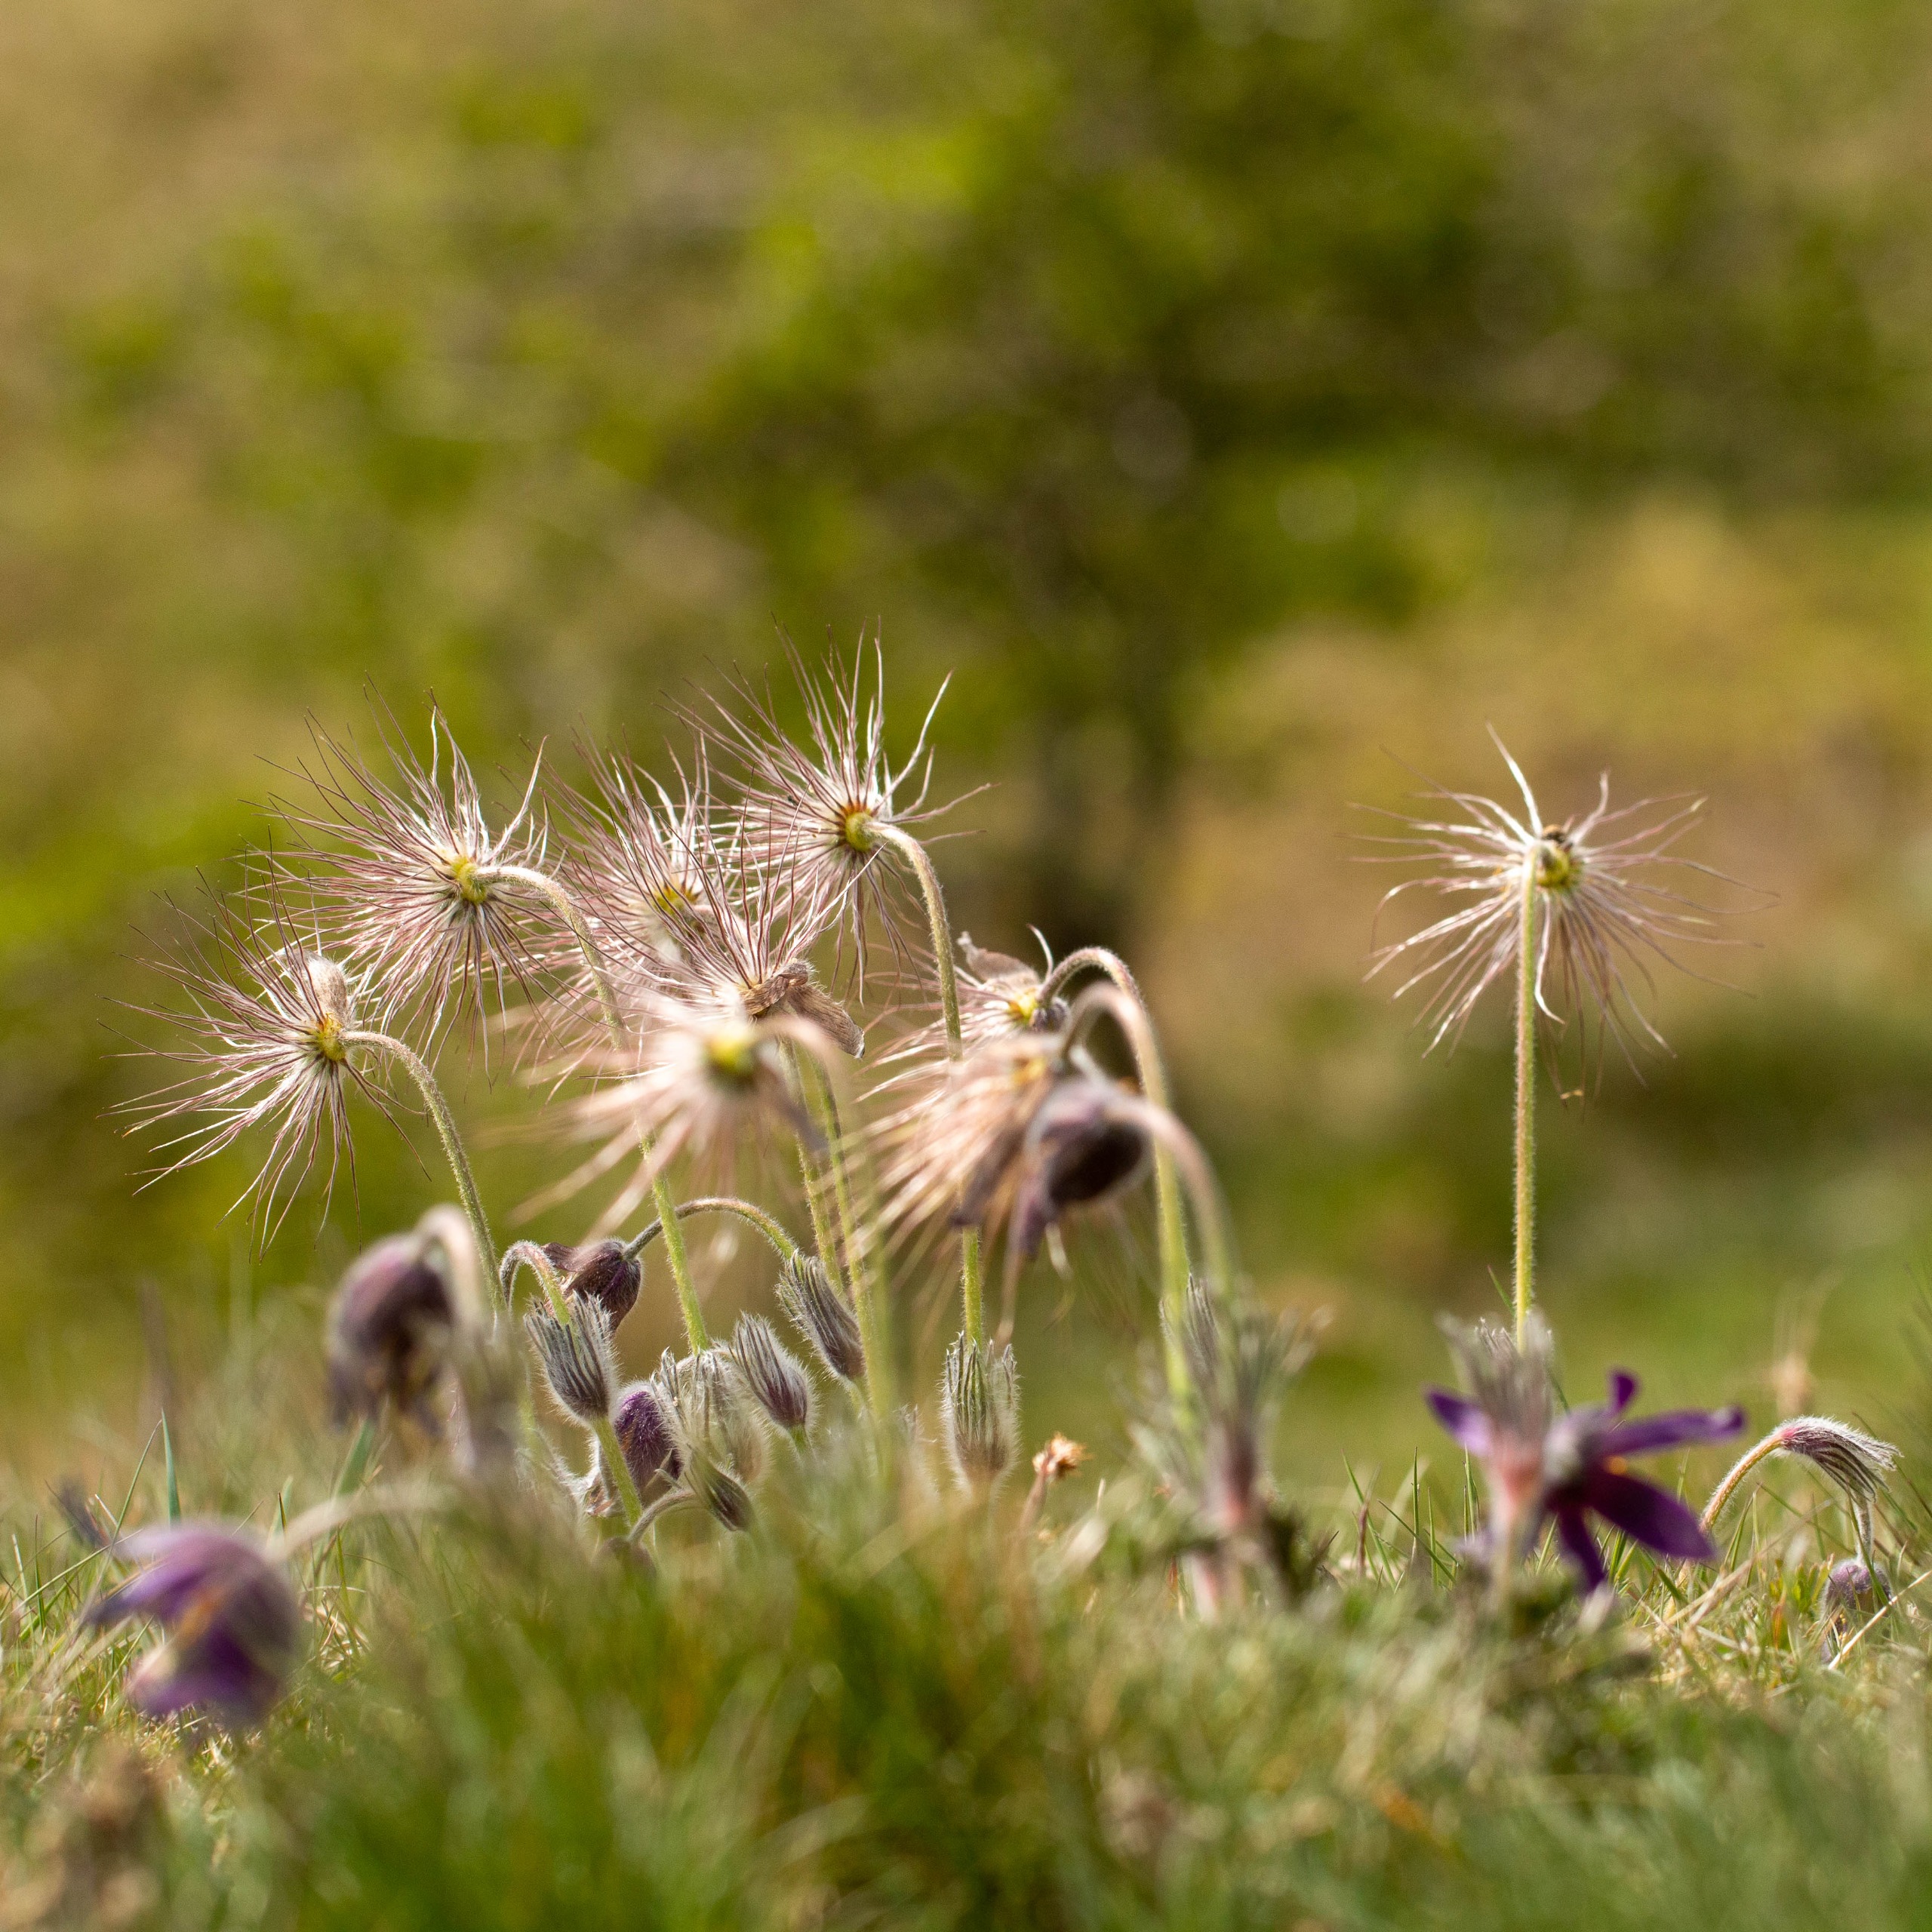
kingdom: Plantae
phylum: Tracheophyta
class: Magnoliopsida
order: Ranunculales
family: Ranunculaceae
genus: Pulsatilla
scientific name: Pulsatilla vulgaris
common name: Opret kobjælde
